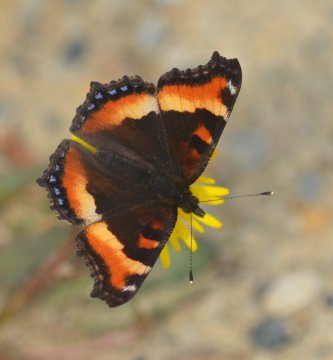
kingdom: Animalia
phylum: Arthropoda
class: Insecta
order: Lepidoptera
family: Nymphalidae
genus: Aglais
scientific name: Aglais milberti
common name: Milbert's Tortoiseshell
